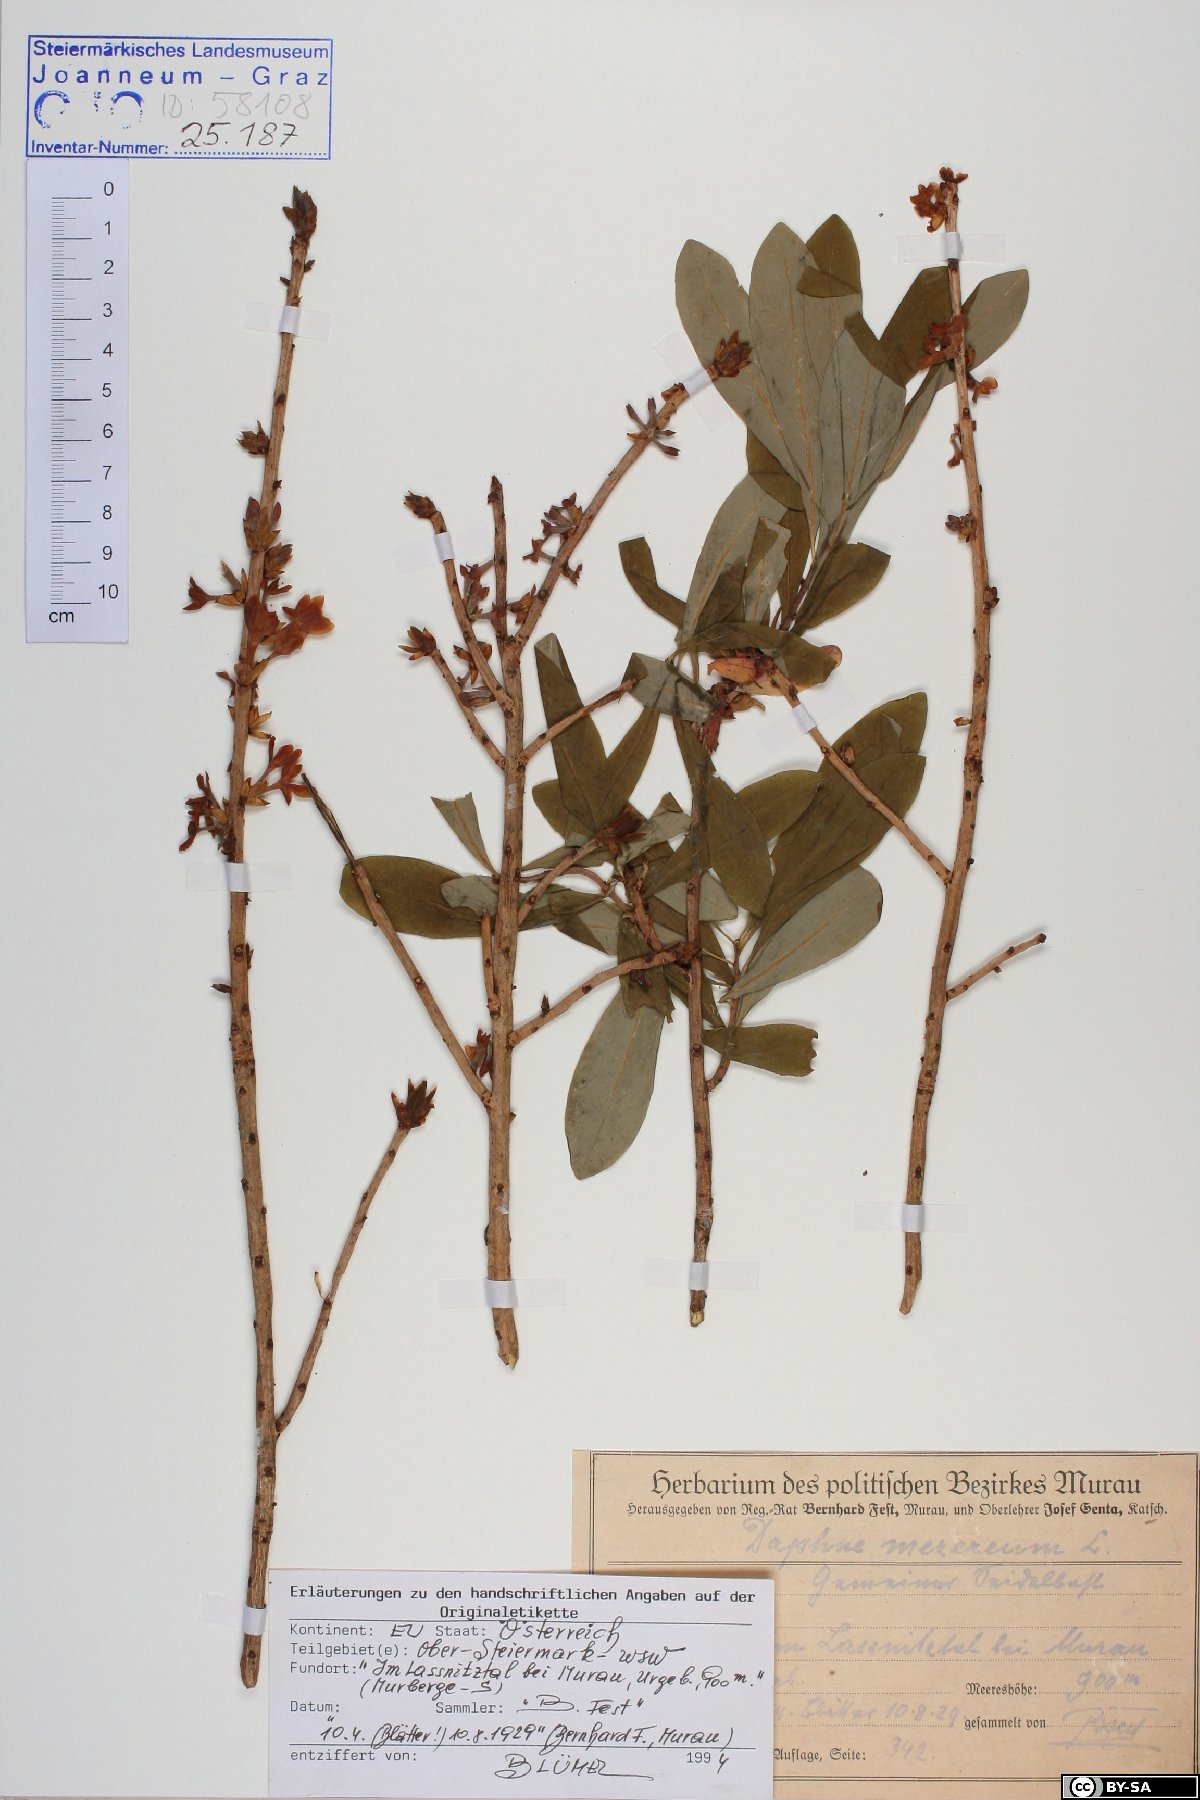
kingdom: Plantae
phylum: Tracheophyta
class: Magnoliopsida
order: Malvales
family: Thymelaeaceae
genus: Daphne
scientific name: Daphne mezereum
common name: Mezereon
